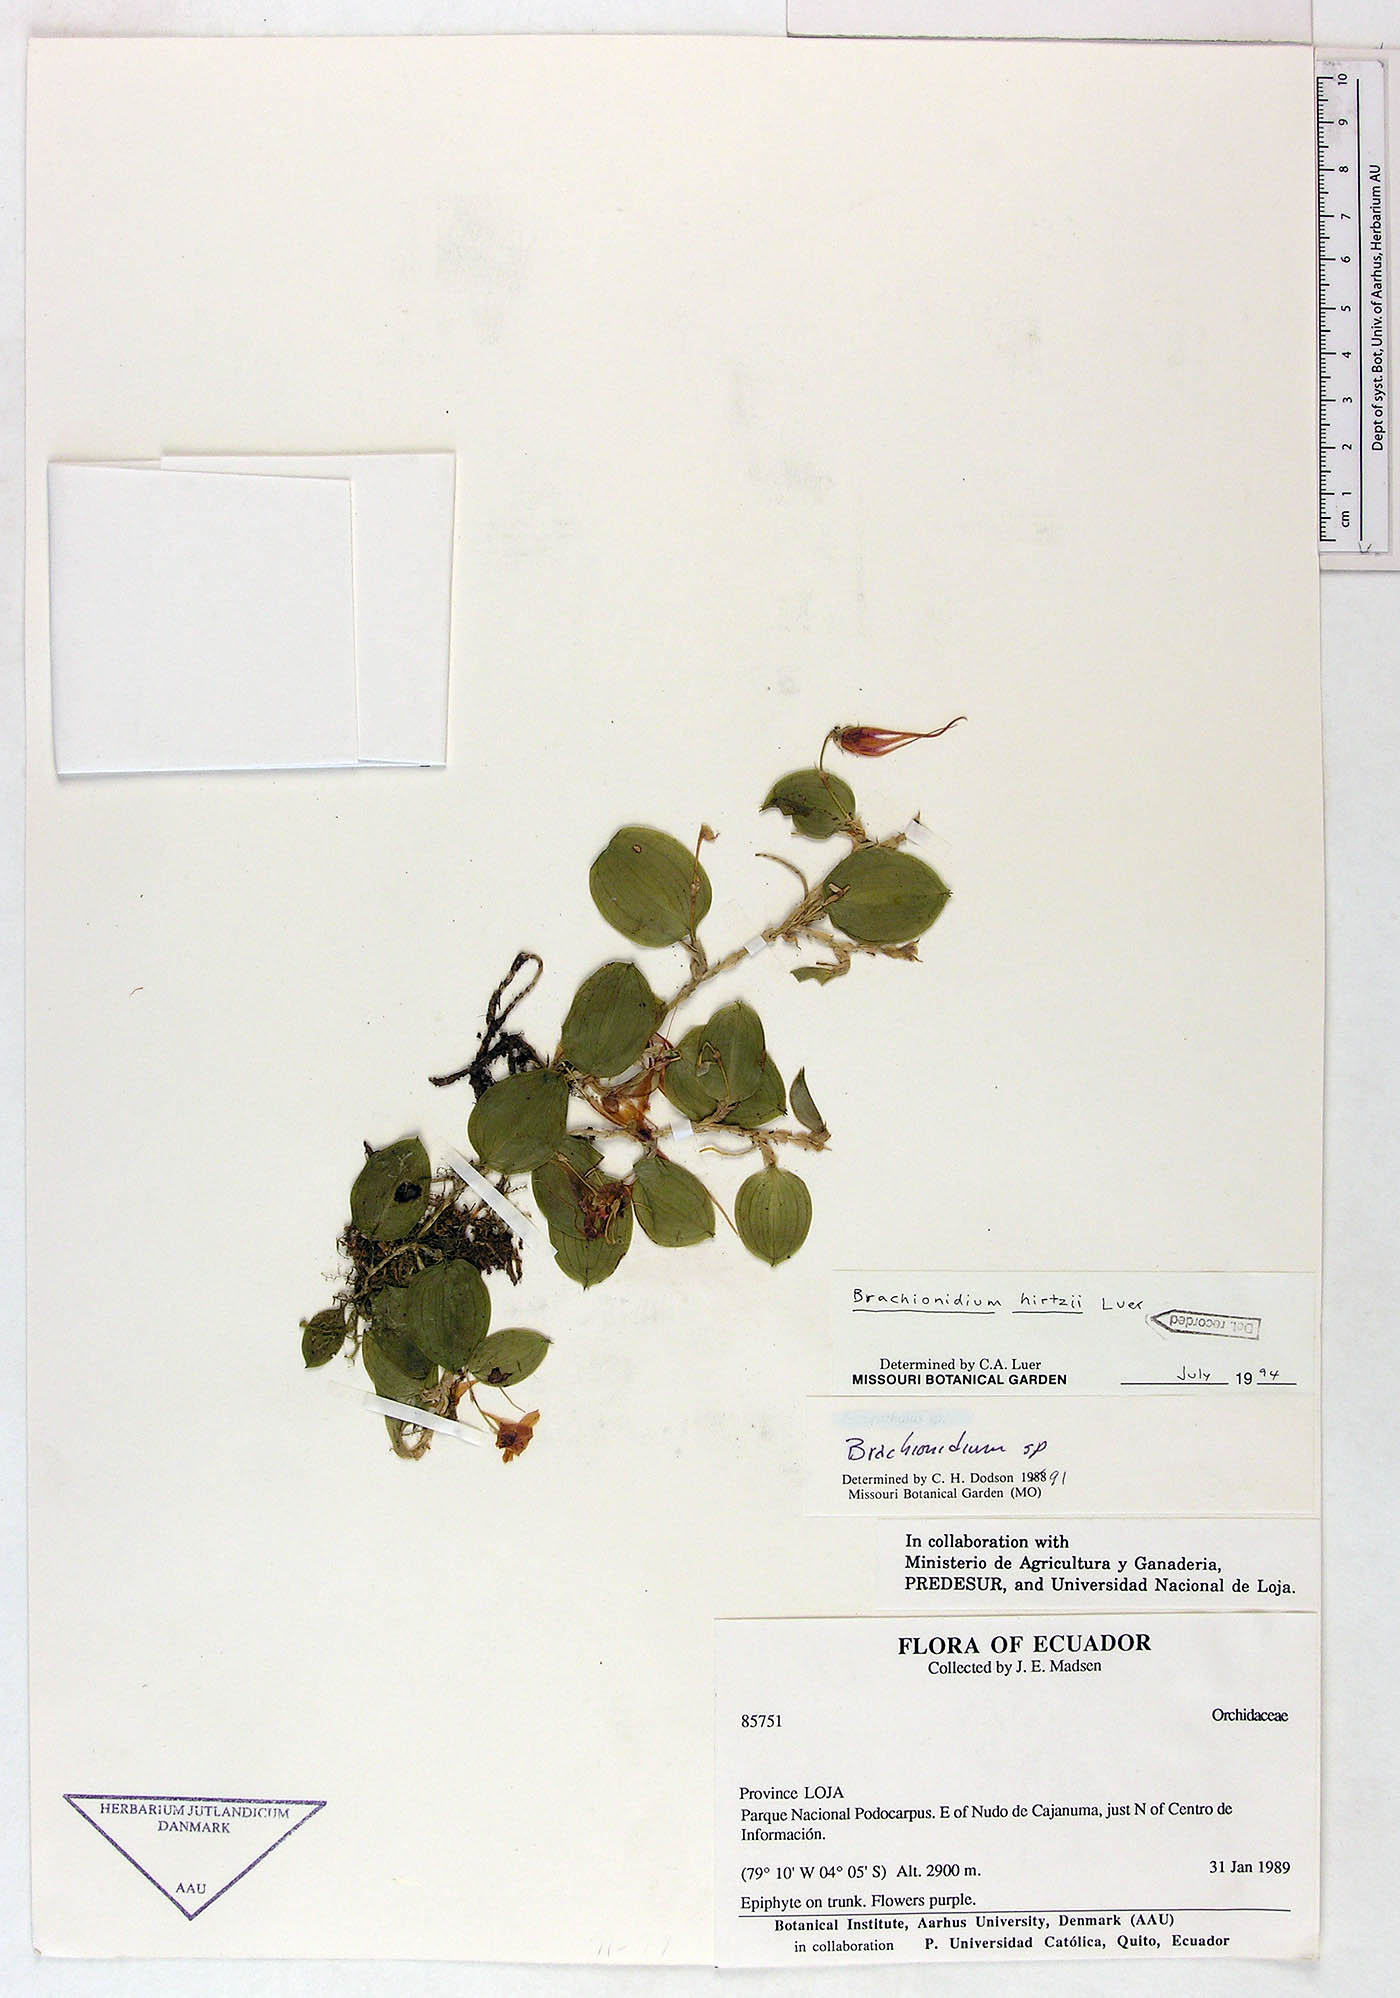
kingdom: Plantae
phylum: Tracheophyta
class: Liliopsida
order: Asparagales
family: Orchidaceae
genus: Brachionidium
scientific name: Brachionidium hirtzii
